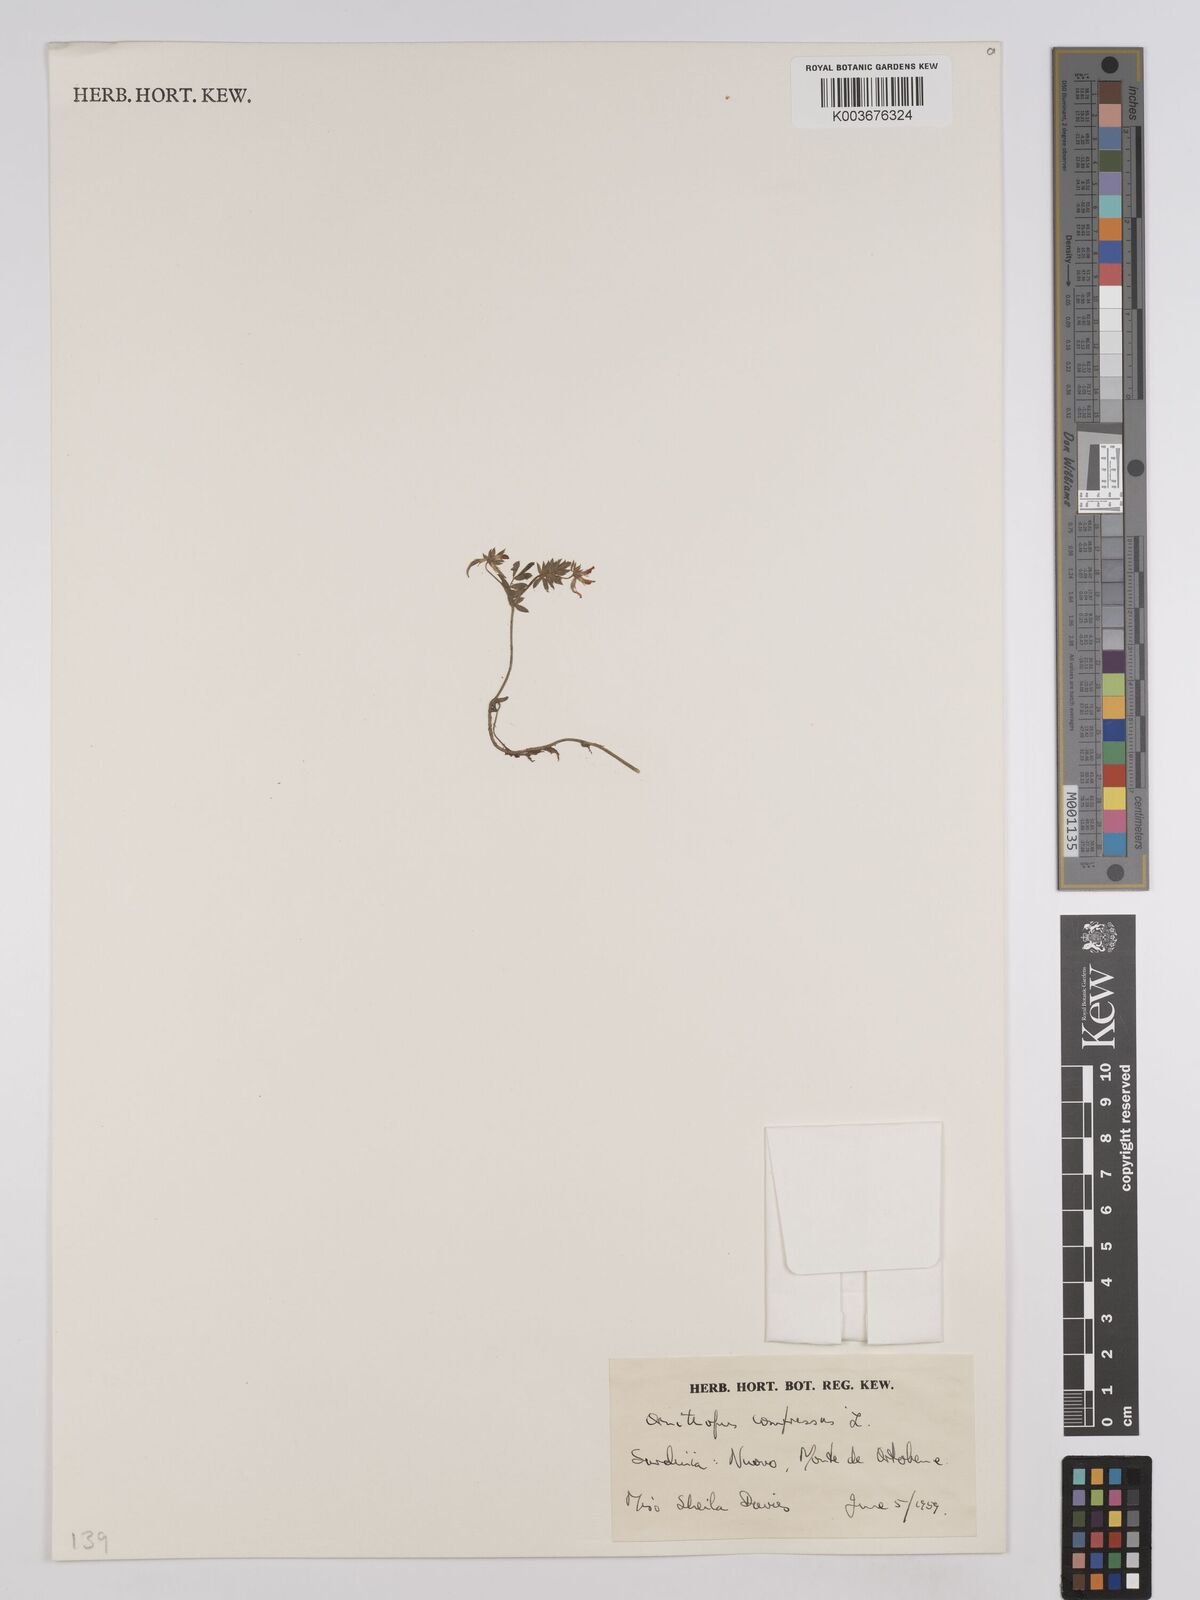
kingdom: Plantae
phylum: Tracheophyta
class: Magnoliopsida
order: Fabales
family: Fabaceae
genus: Ornithopus
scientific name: Ornithopus compressus
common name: Yellow serradella
